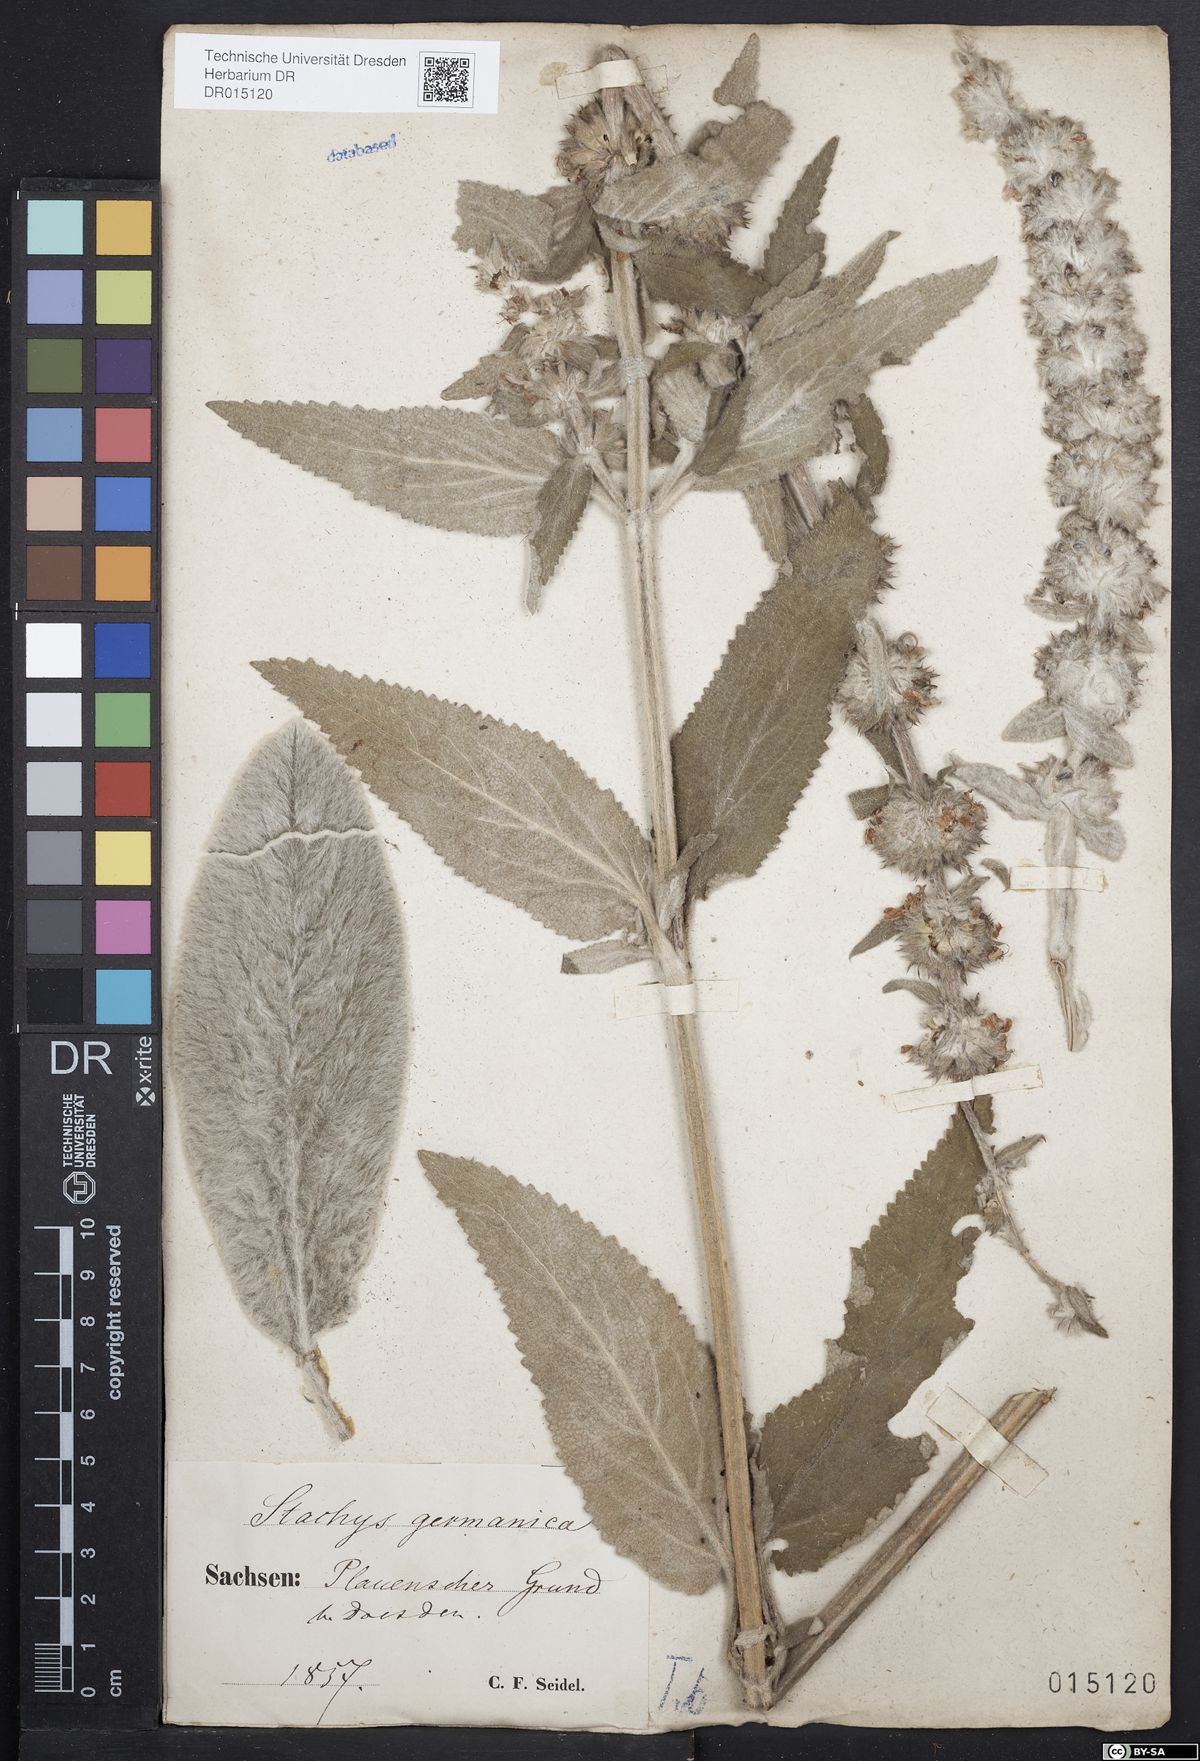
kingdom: Plantae
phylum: Tracheophyta
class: Magnoliopsida
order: Lamiales
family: Lamiaceae
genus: Stachys
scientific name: Stachys germanica
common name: Downy woundwort
